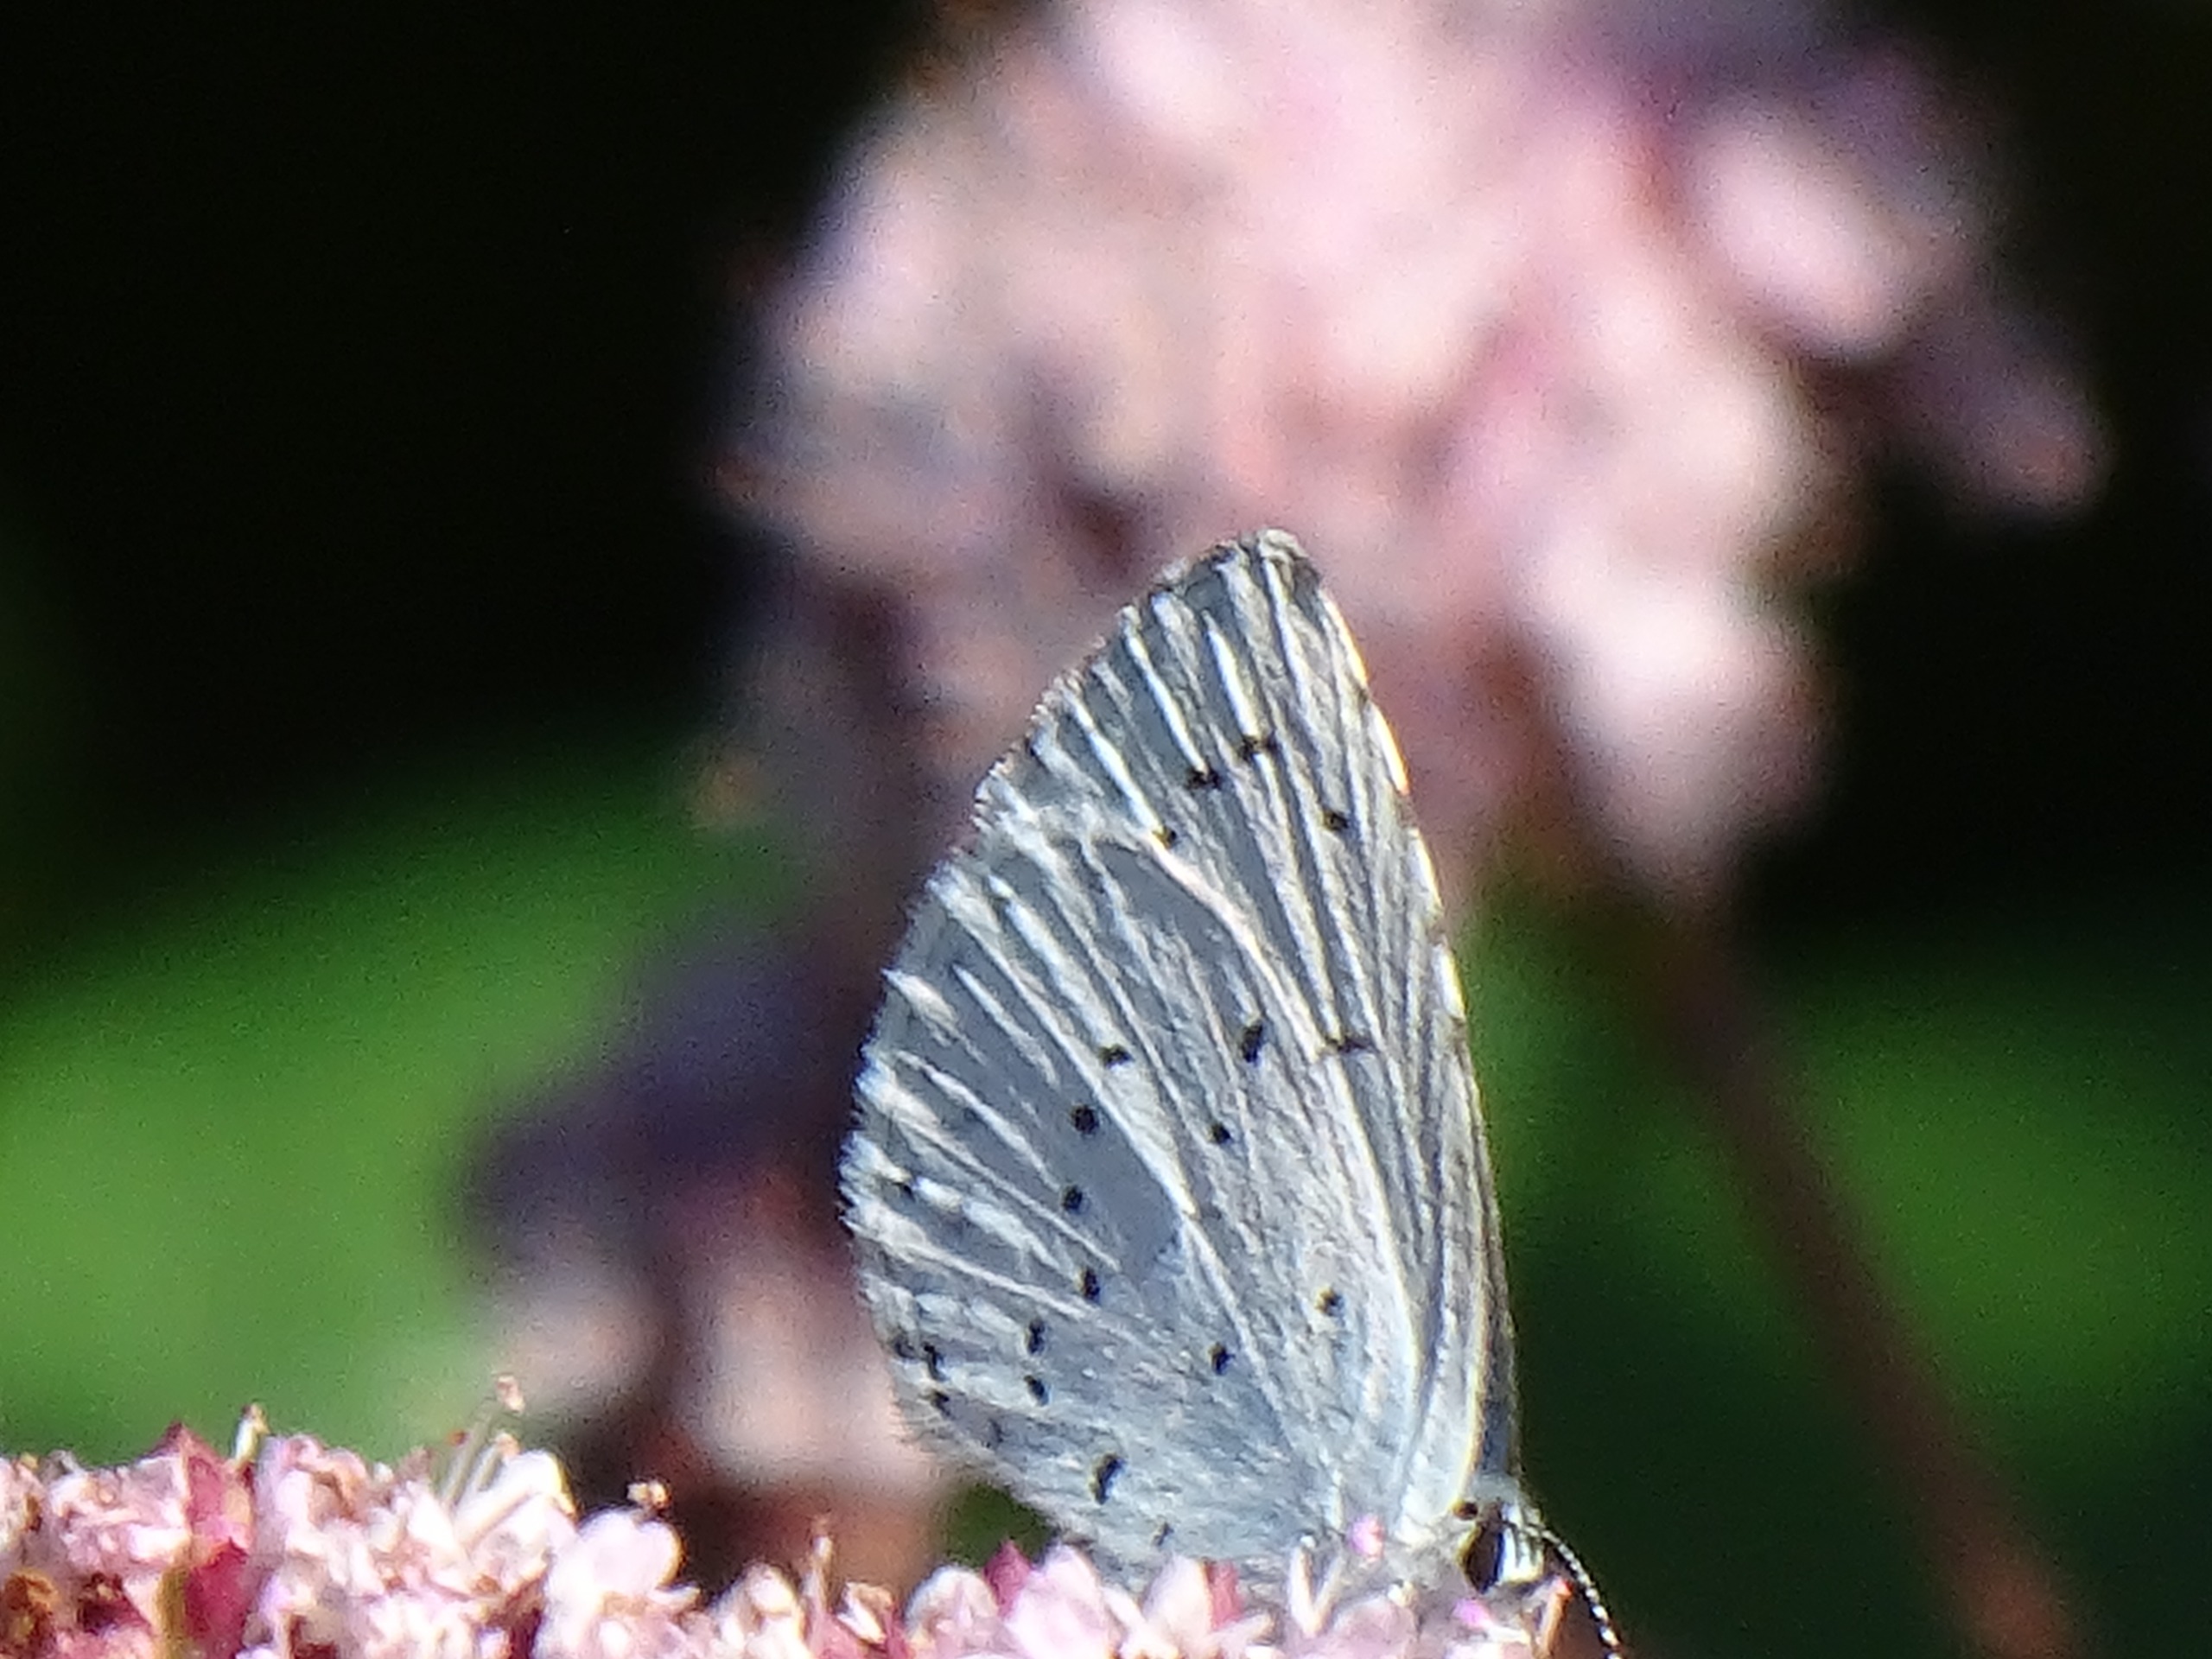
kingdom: Animalia
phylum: Arthropoda
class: Insecta
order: Lepidoptera
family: Lycaenidae
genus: Celastrina
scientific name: Celastrina argiolus
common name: Skovblåfugl
